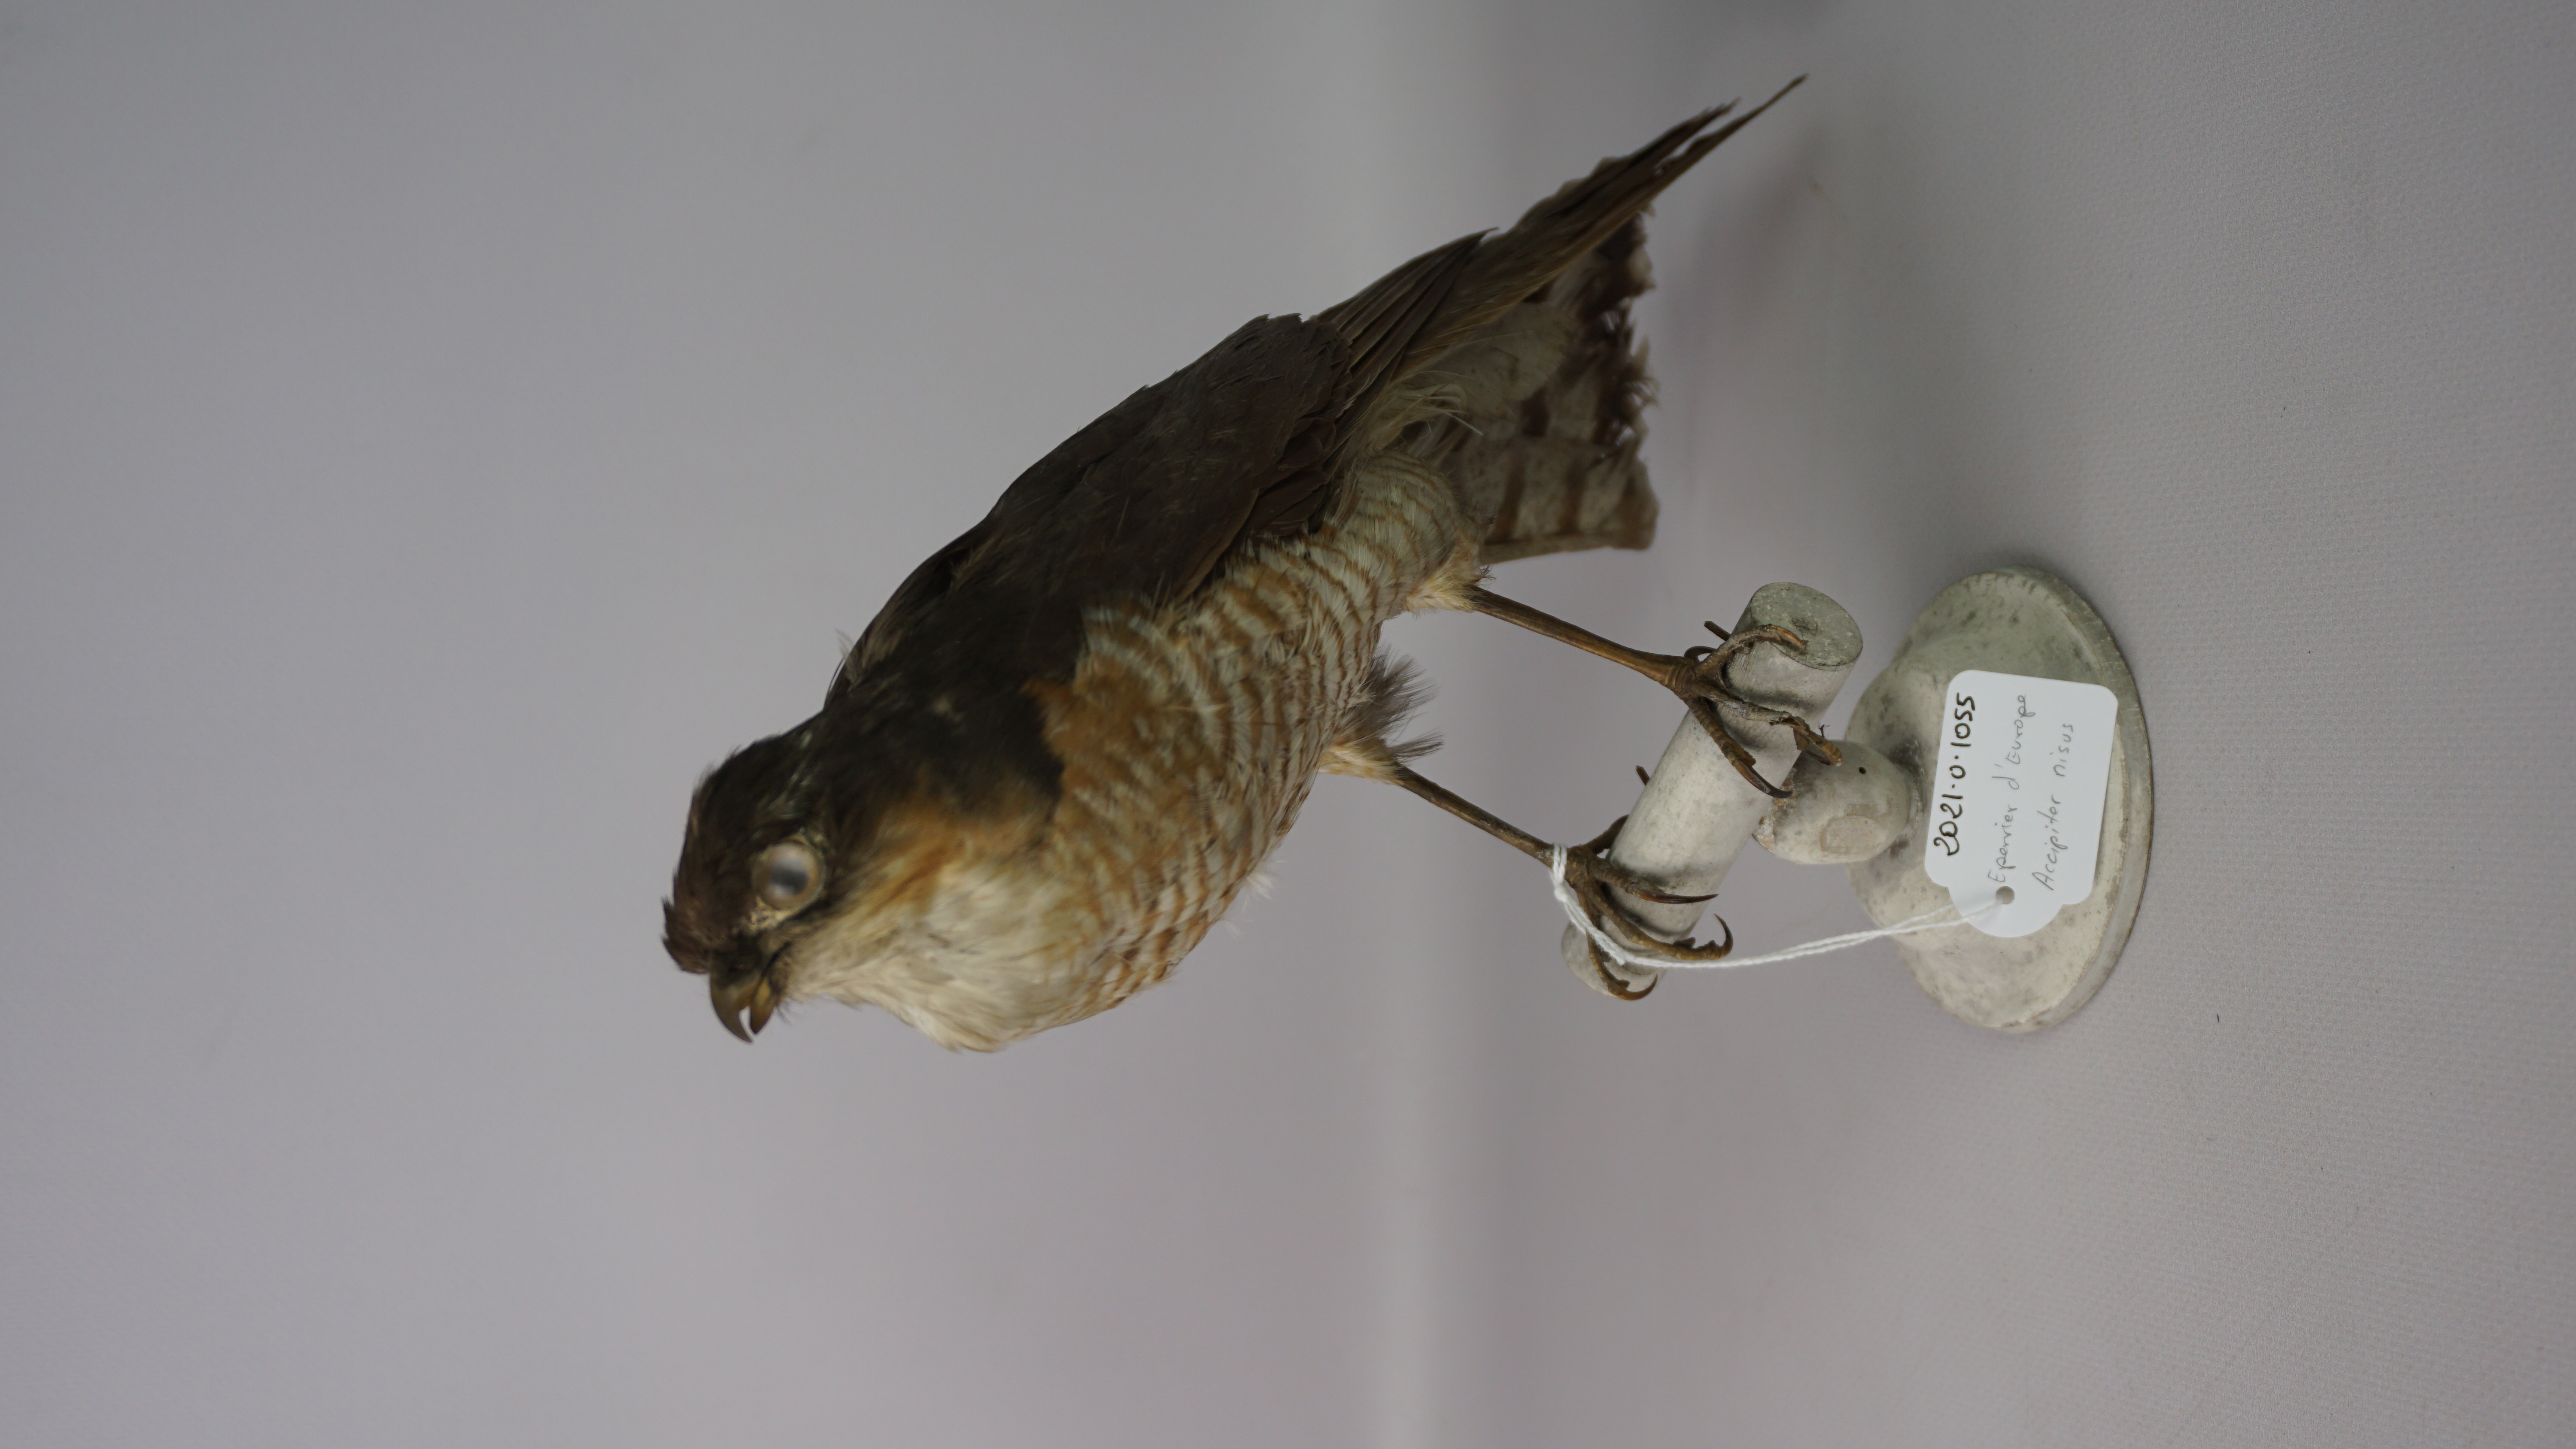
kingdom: Animalia
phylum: Chordata
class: Aves
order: Accipitriformes
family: Accipitridae
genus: Accipiter
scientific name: Accipiter nisus
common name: Eurasian sparrowhawk
